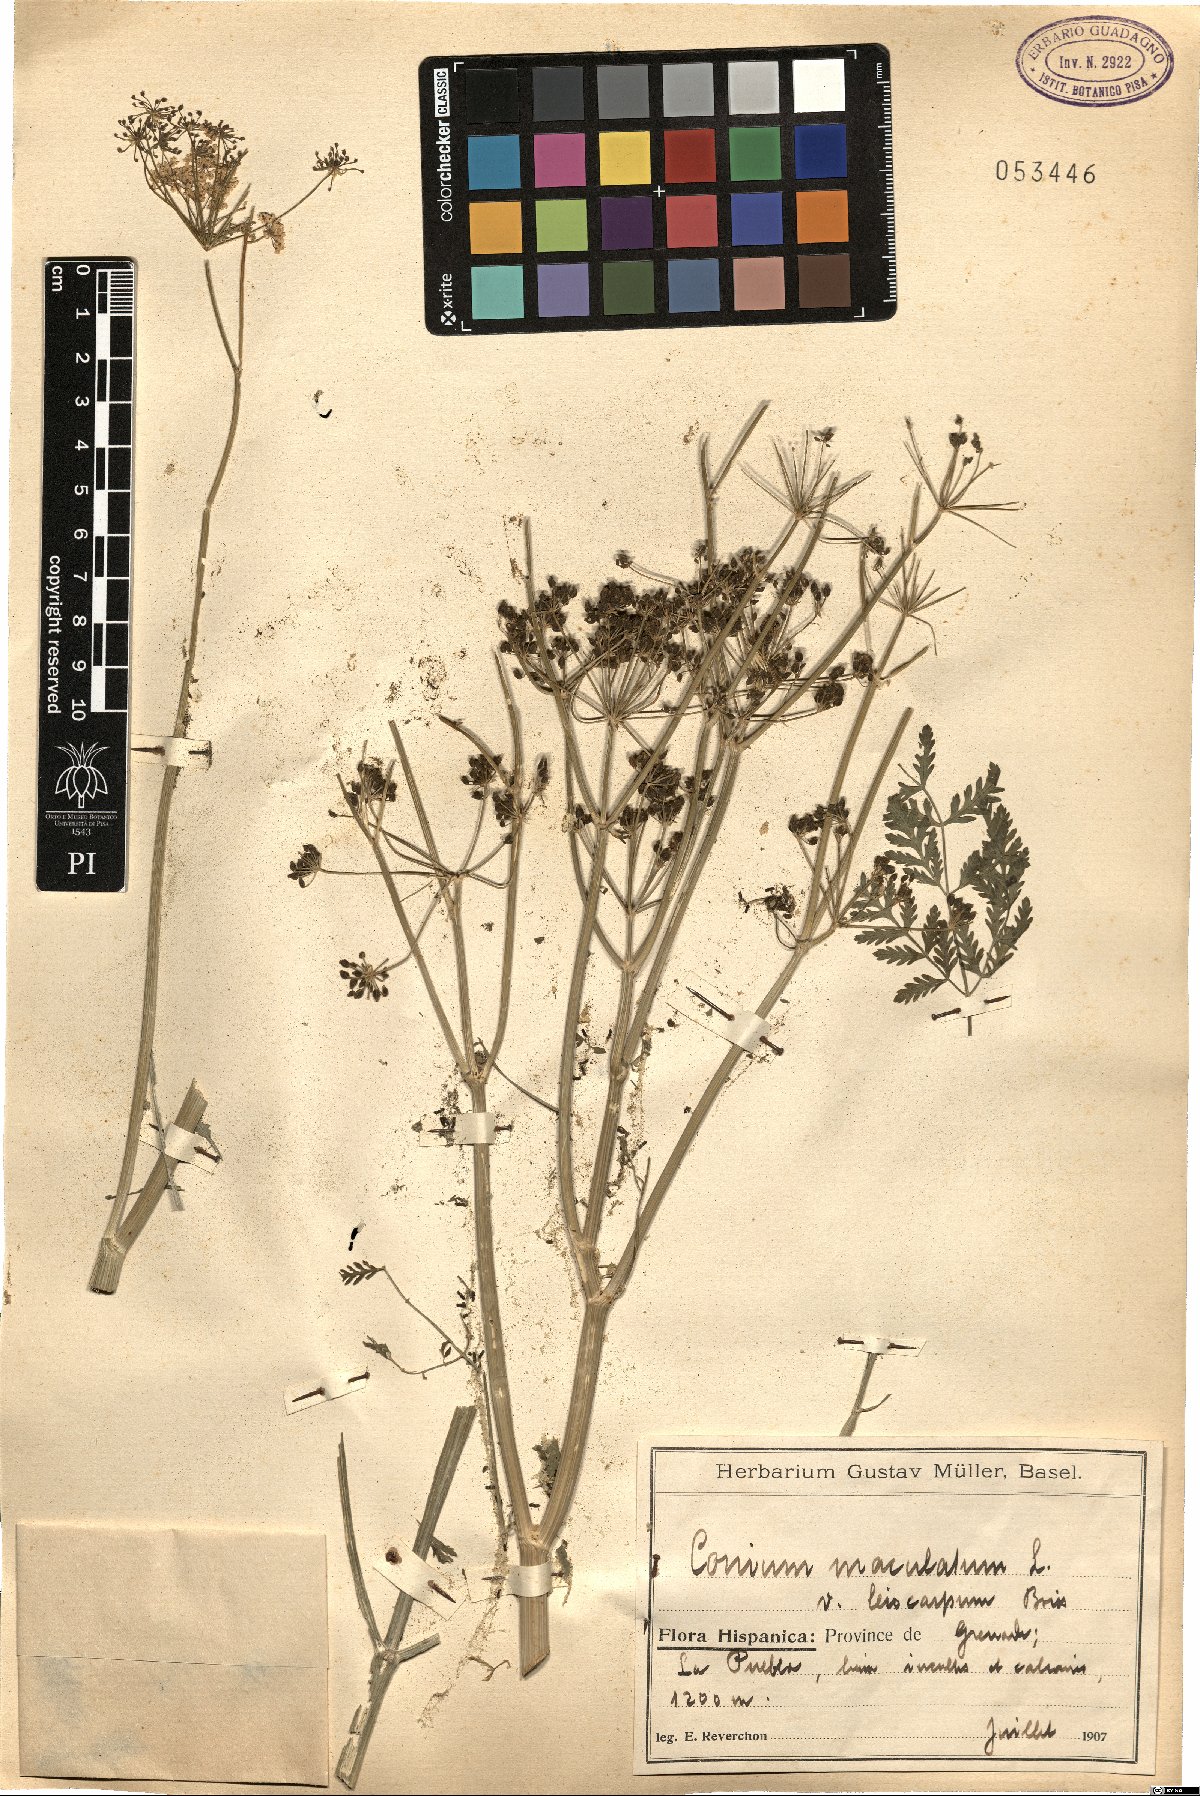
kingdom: Plantae
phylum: Tracheophyta
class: Magnoliopsida
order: Apiales
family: Apiaceae
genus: Conium
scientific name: Conium maculatum
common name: Hemlock
